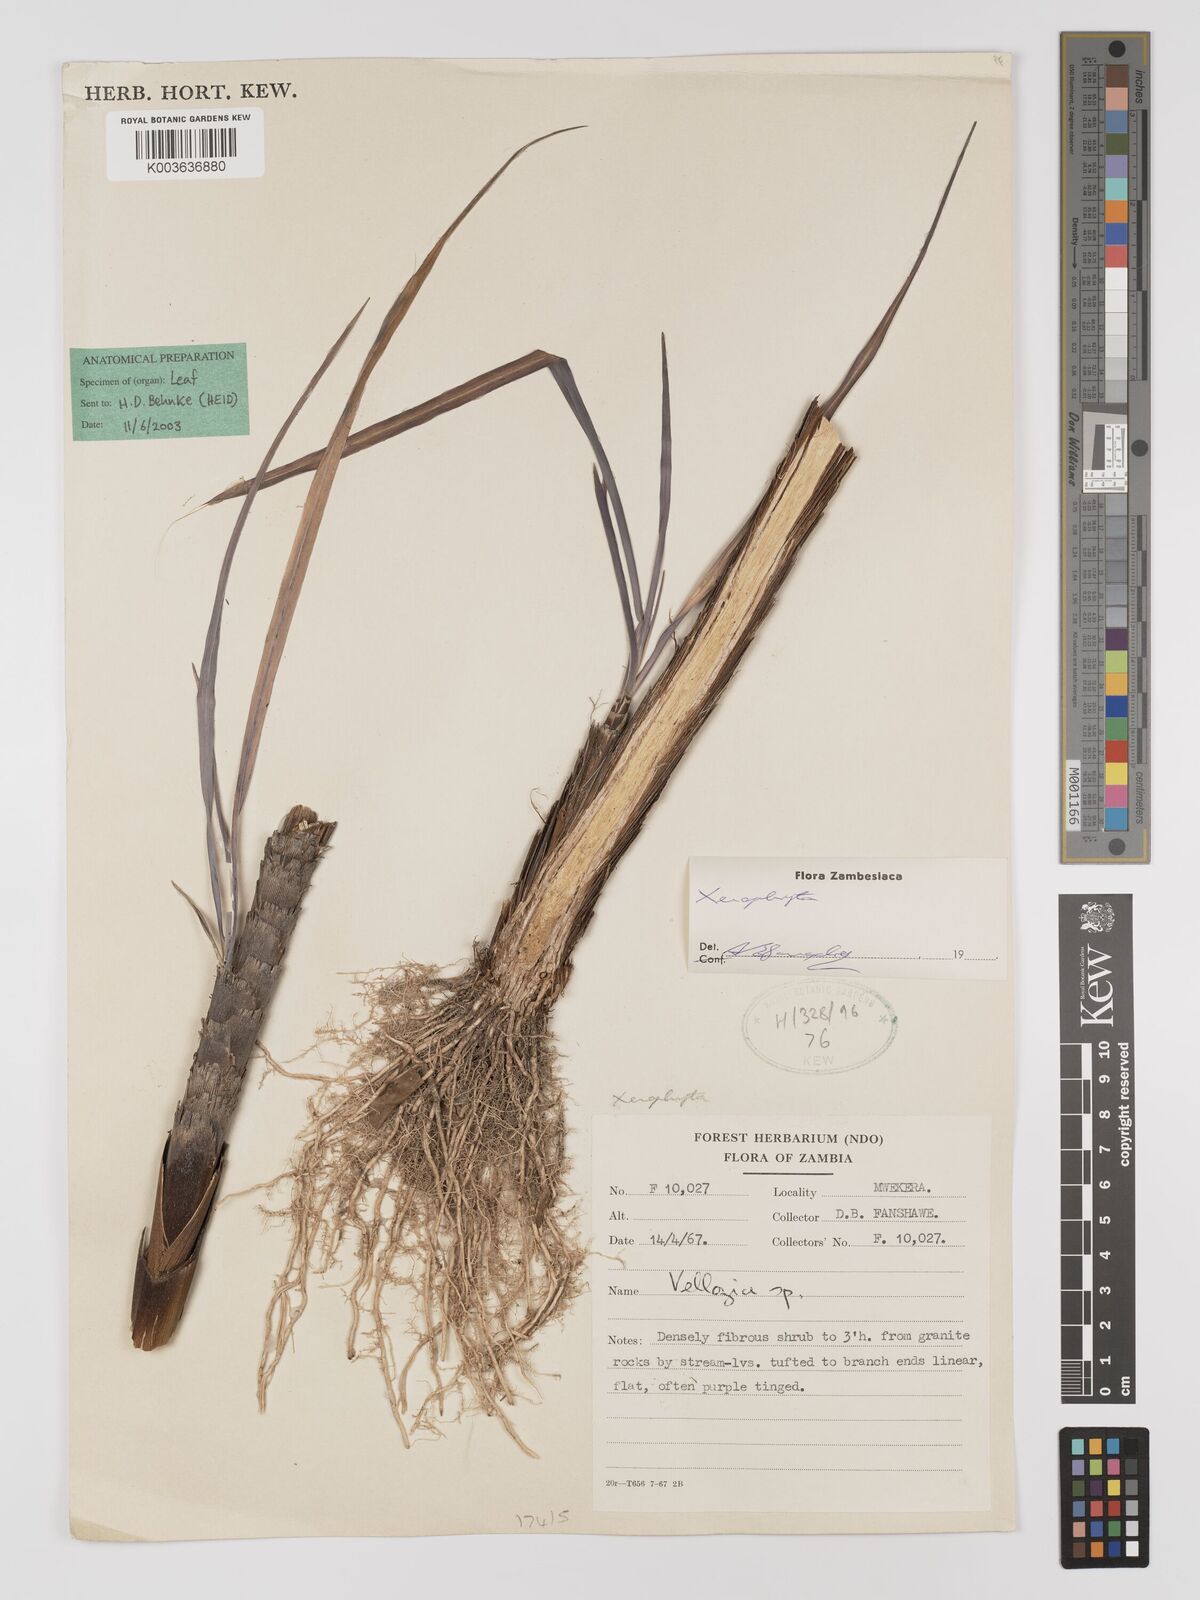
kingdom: Plantae
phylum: Tracheophyta
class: Liliopsida
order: Pandanales
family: Velloziaceae
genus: Xerophyta
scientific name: Xerophyta
